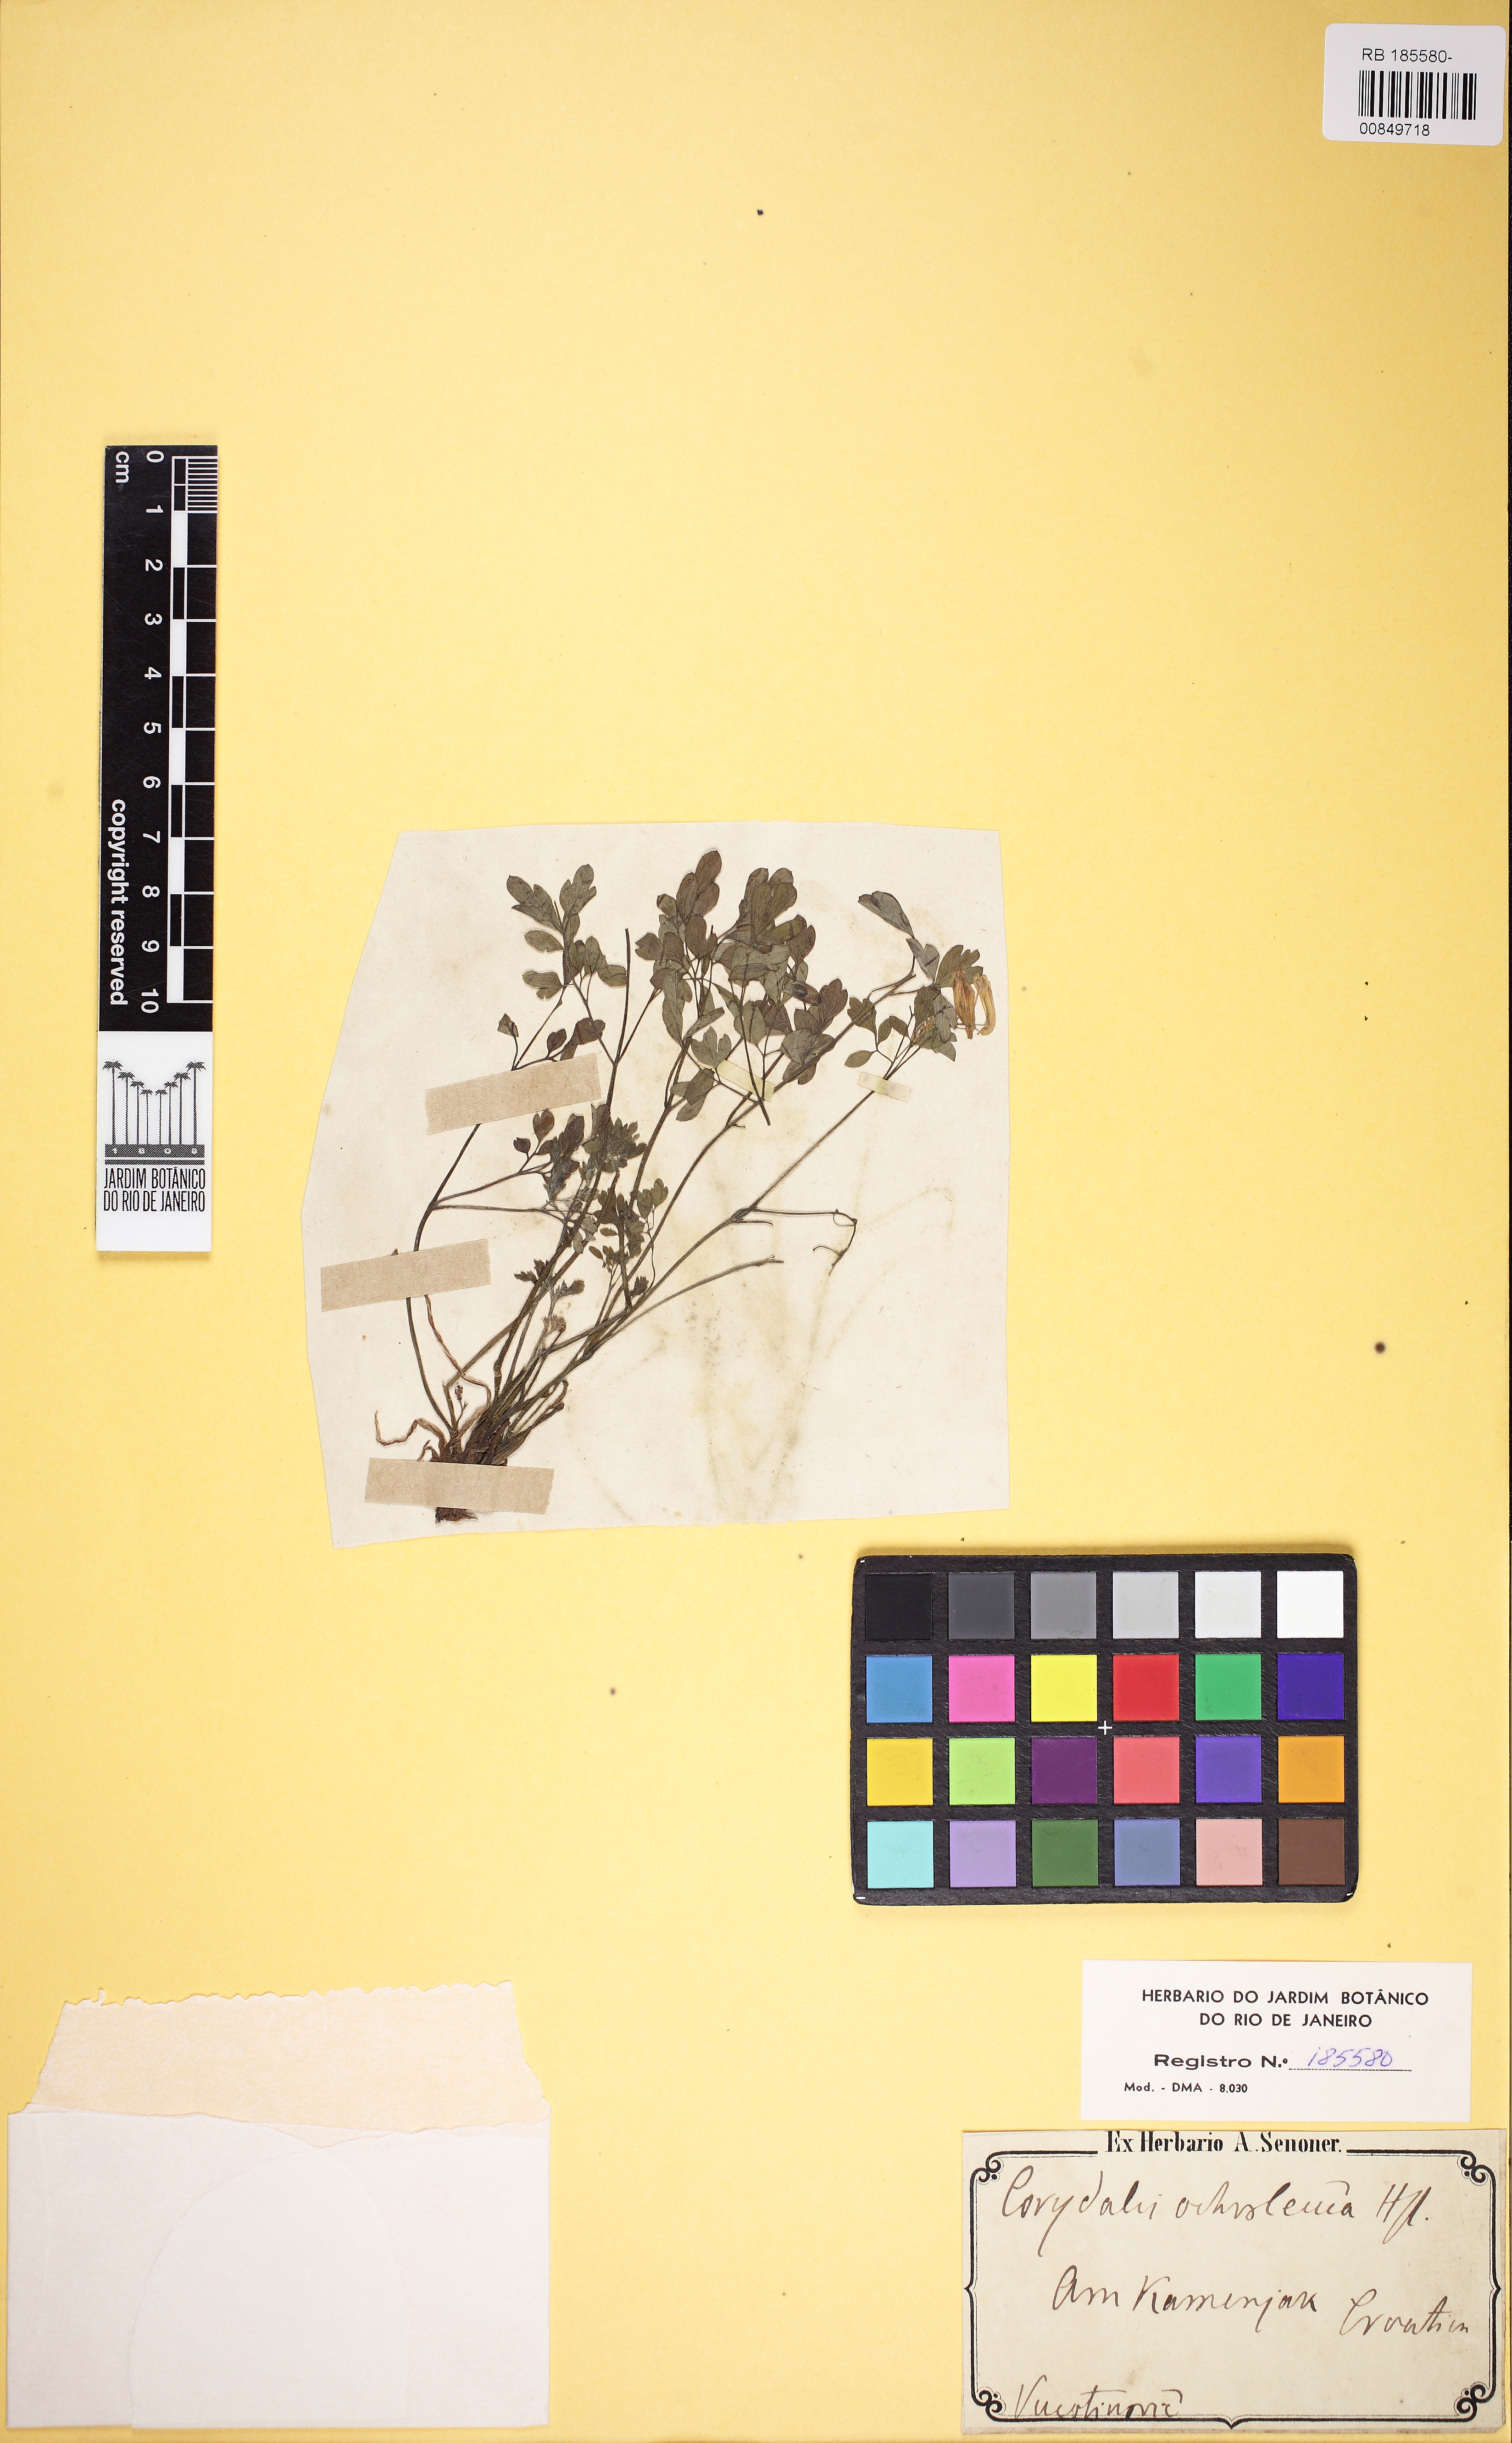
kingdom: Plantae
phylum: Tracheophyta
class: Magnoliopsida
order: Ranunculales
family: Papaveraceae
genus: Pseudofumaria
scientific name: Pseudofumaria alba
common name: Pale corydalis
